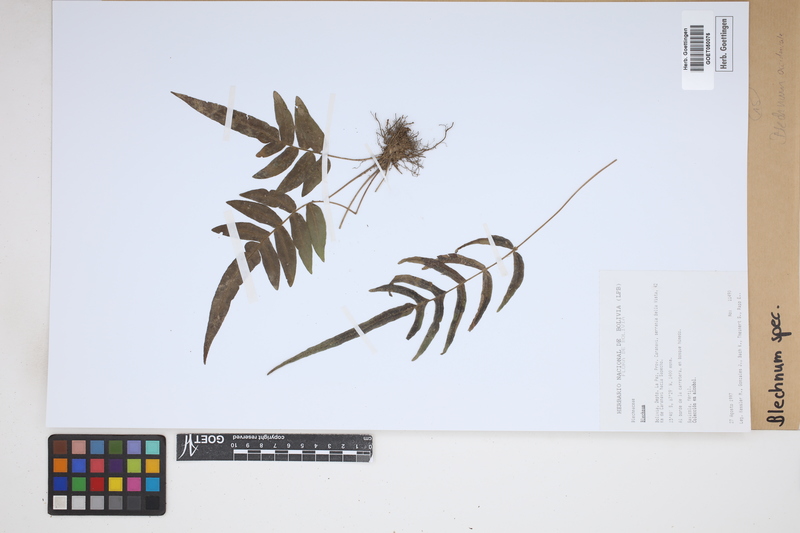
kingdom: Plantae
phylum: Tracheophyta
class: Polypodiopsida
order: Polypodiales
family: Blechnaceae
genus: Blechnum
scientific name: Blechnum
